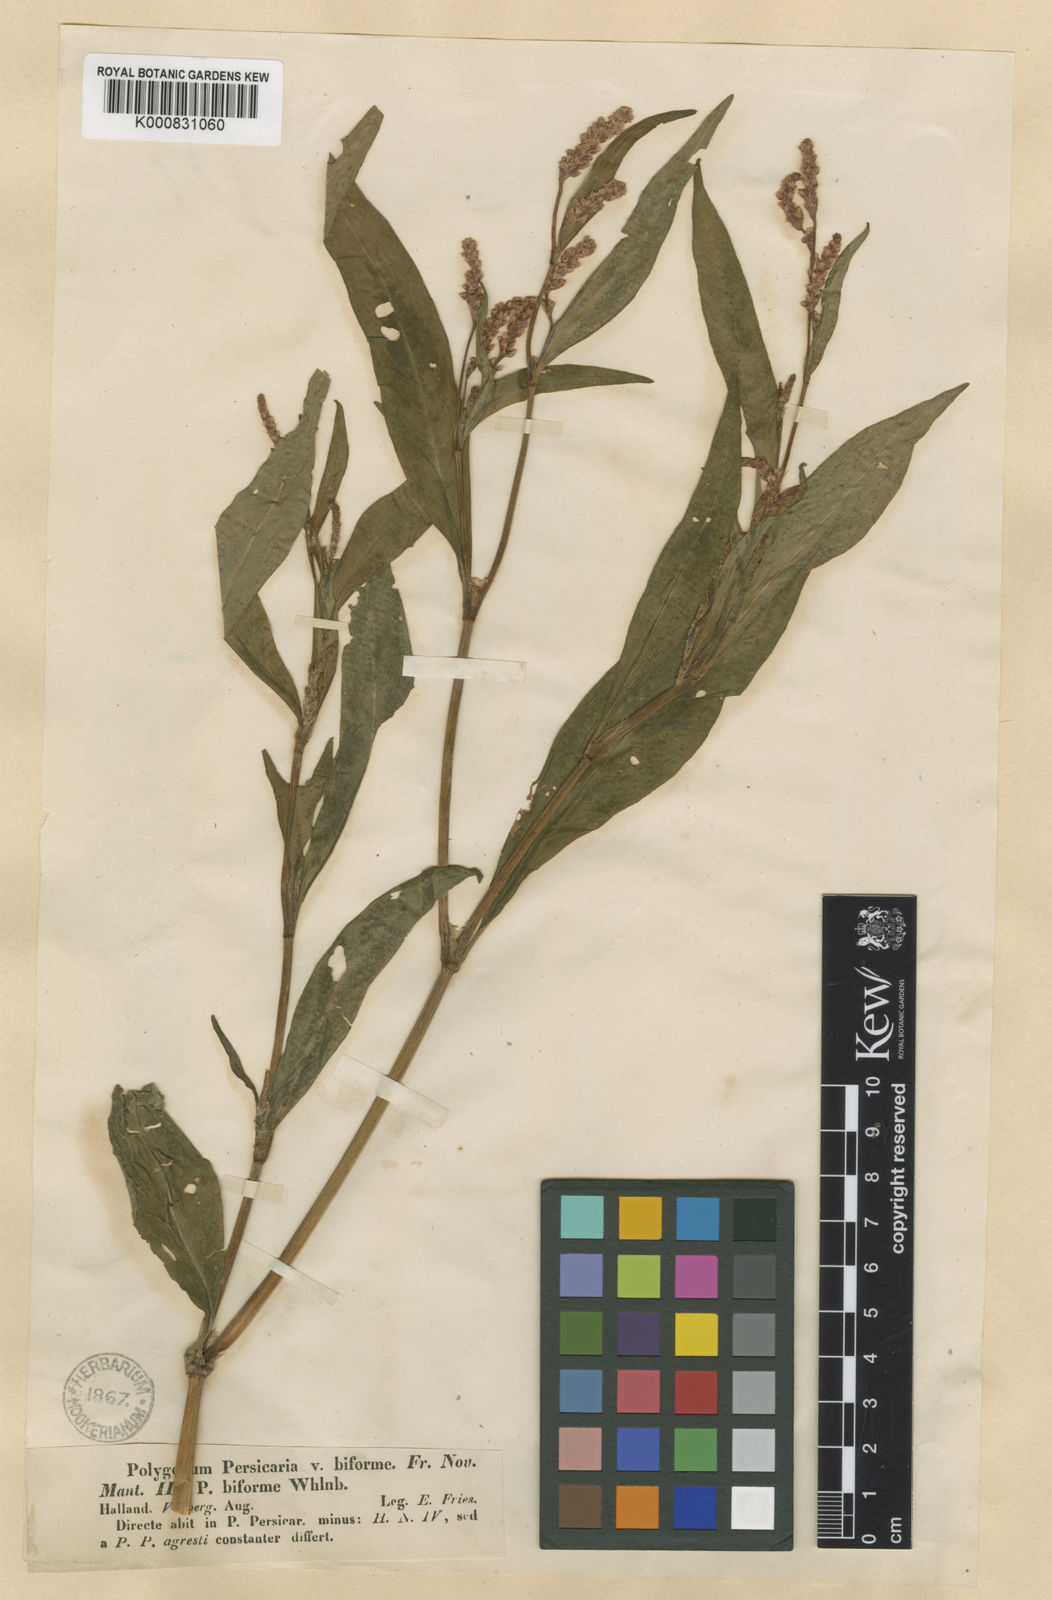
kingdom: Plantae
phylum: Tracheophyta
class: Magnoliopsida
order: Caryophyllales
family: Polygonaceae
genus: Persicaria
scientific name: Persicaria lapathifolia
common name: Curlytop knotweed
